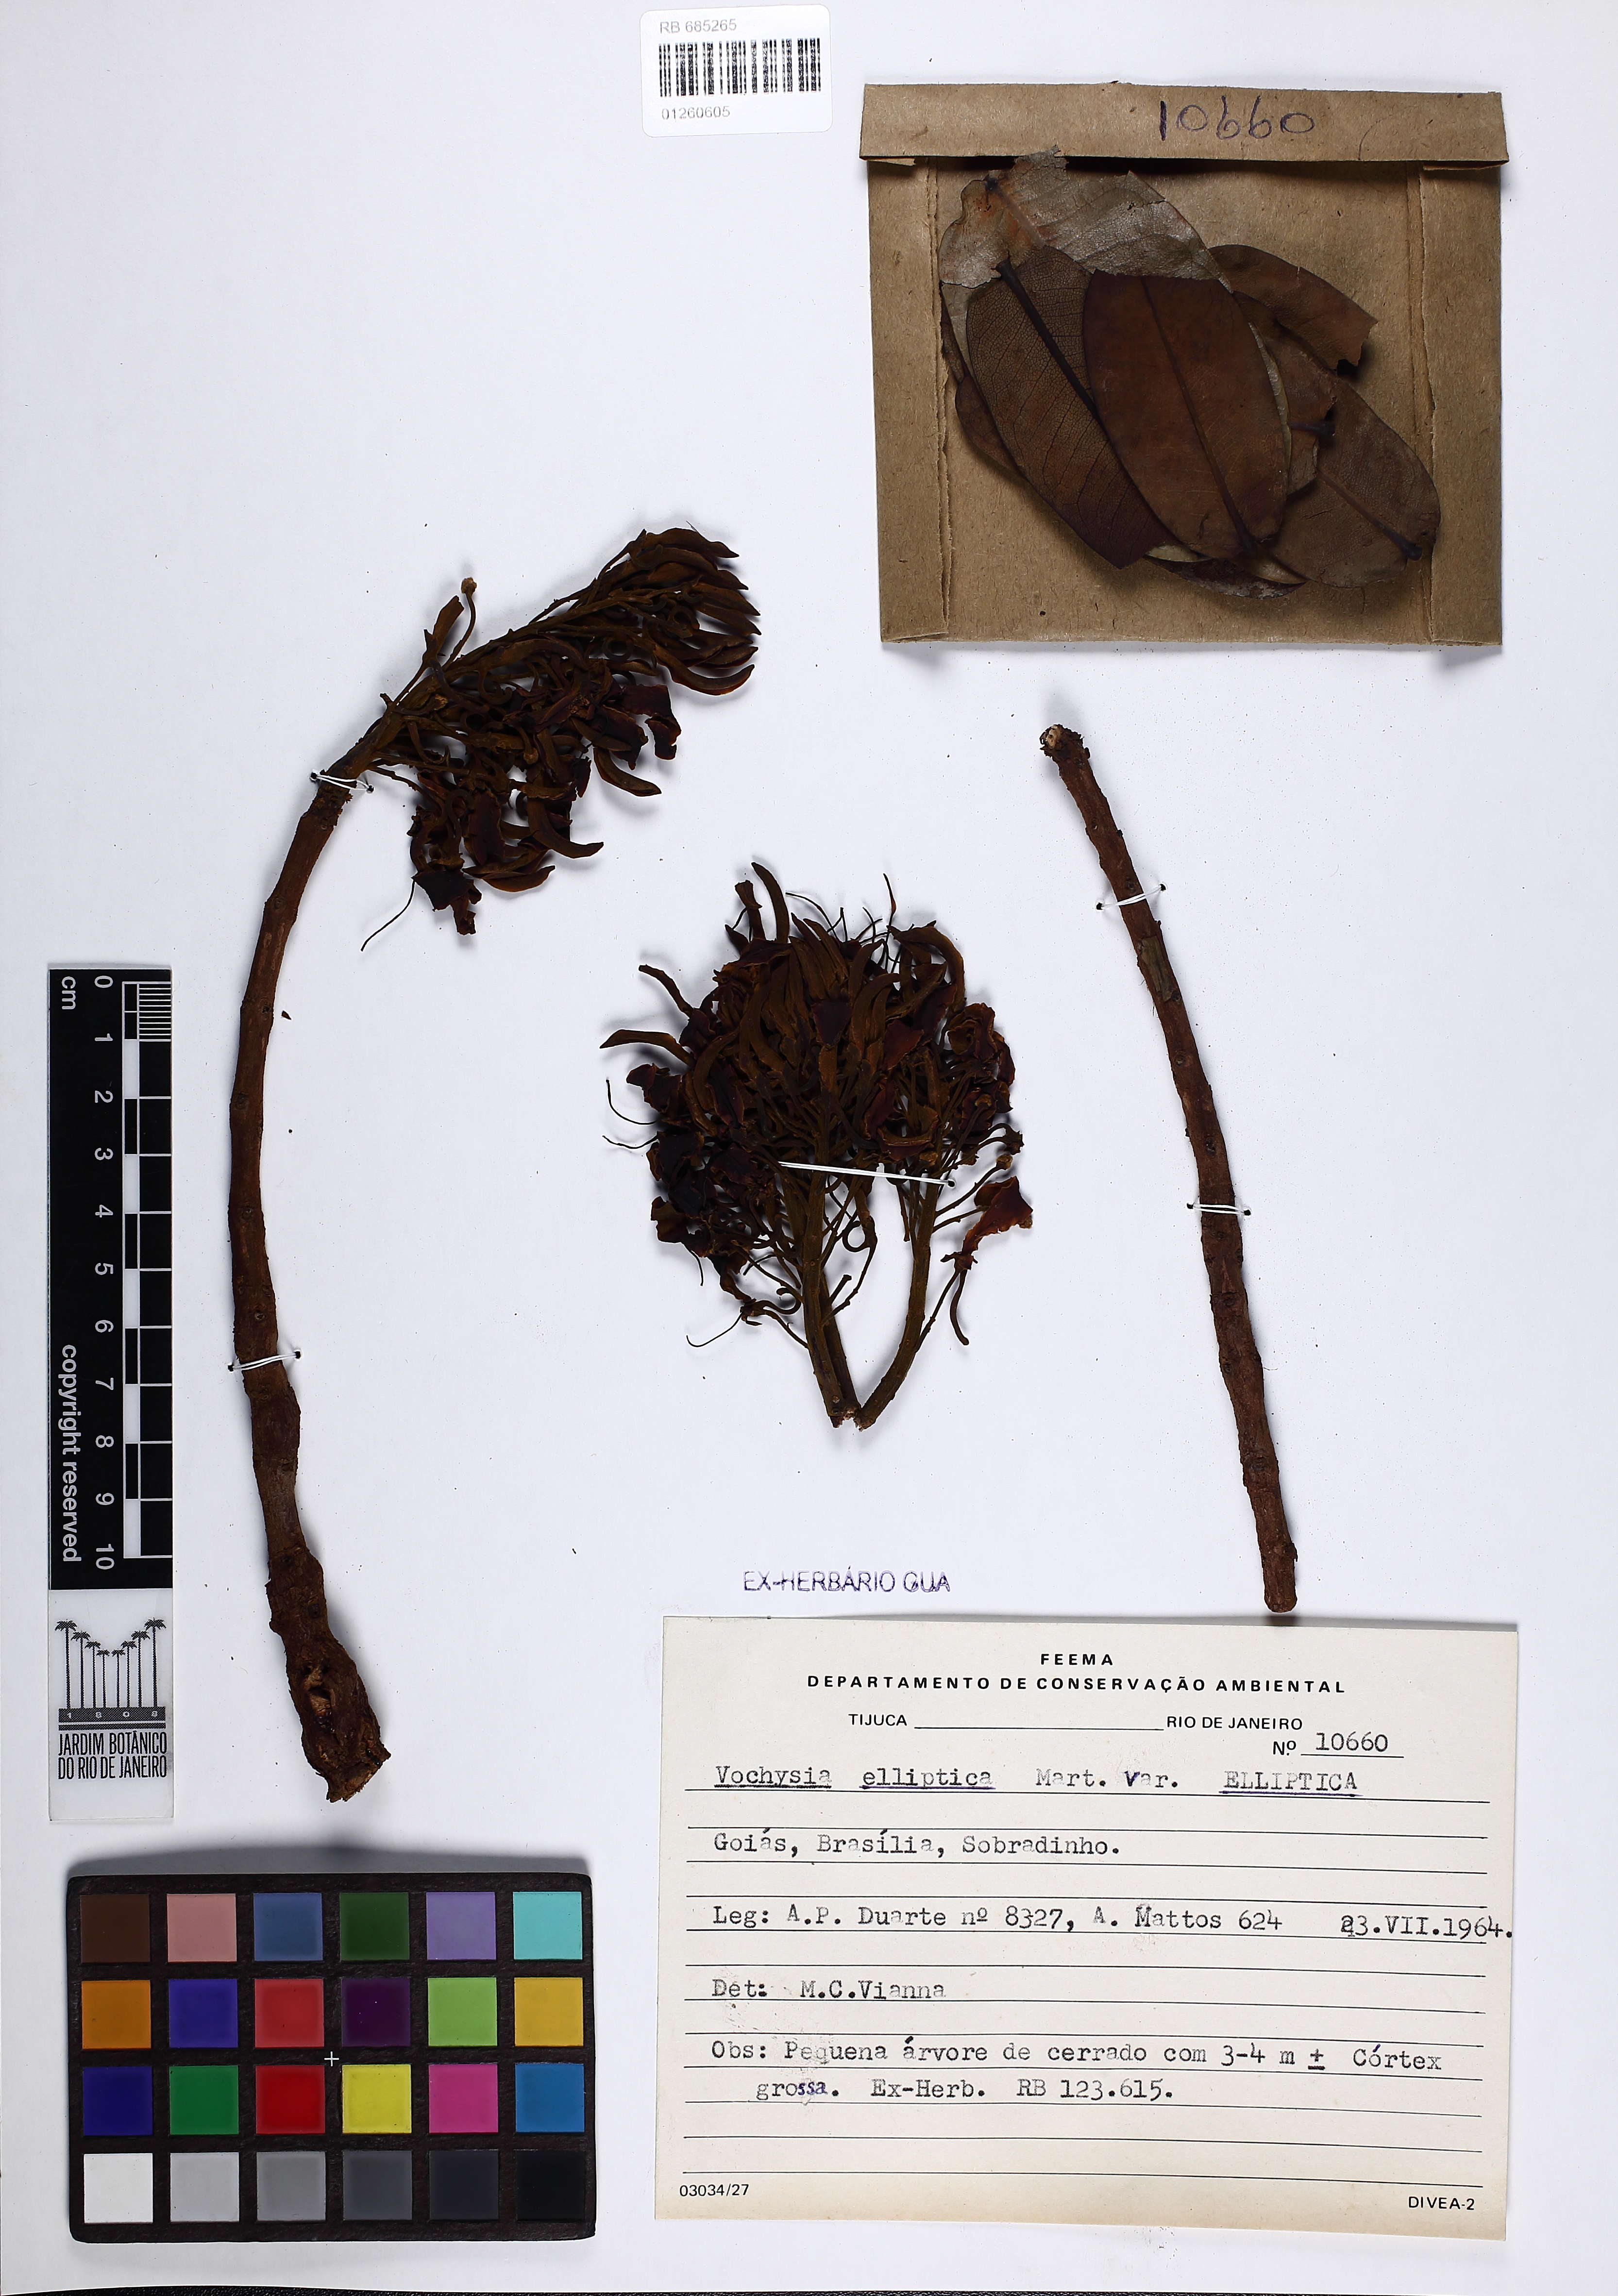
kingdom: Plantae
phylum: Tracheophyta
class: Magnoliopsida
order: Myrtales
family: Vochysiaceae
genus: Vochysia
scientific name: Vochysia elliptica
